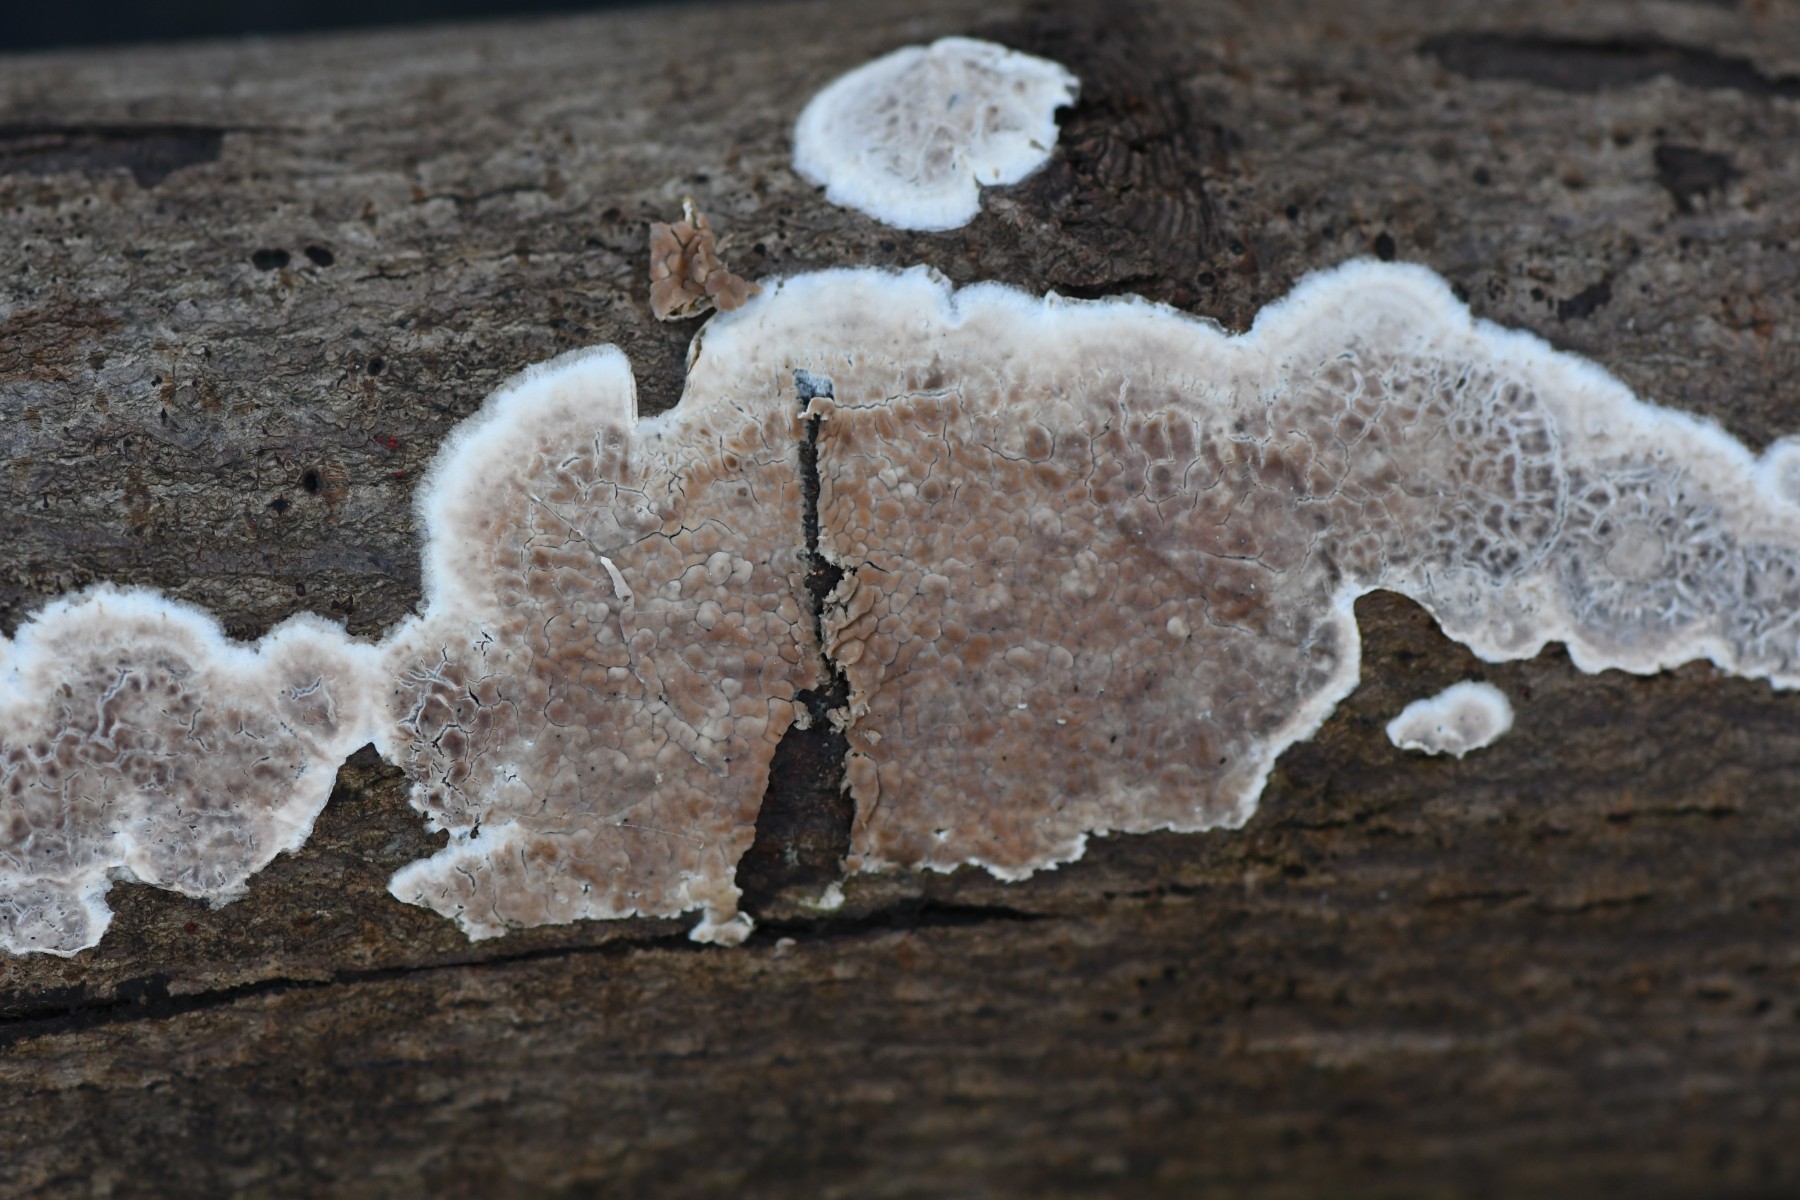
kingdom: Fungi
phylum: Basidiomycota
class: Agaricomycetes
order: Corticiales
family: Corticiaceae
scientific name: Corticiaceae
